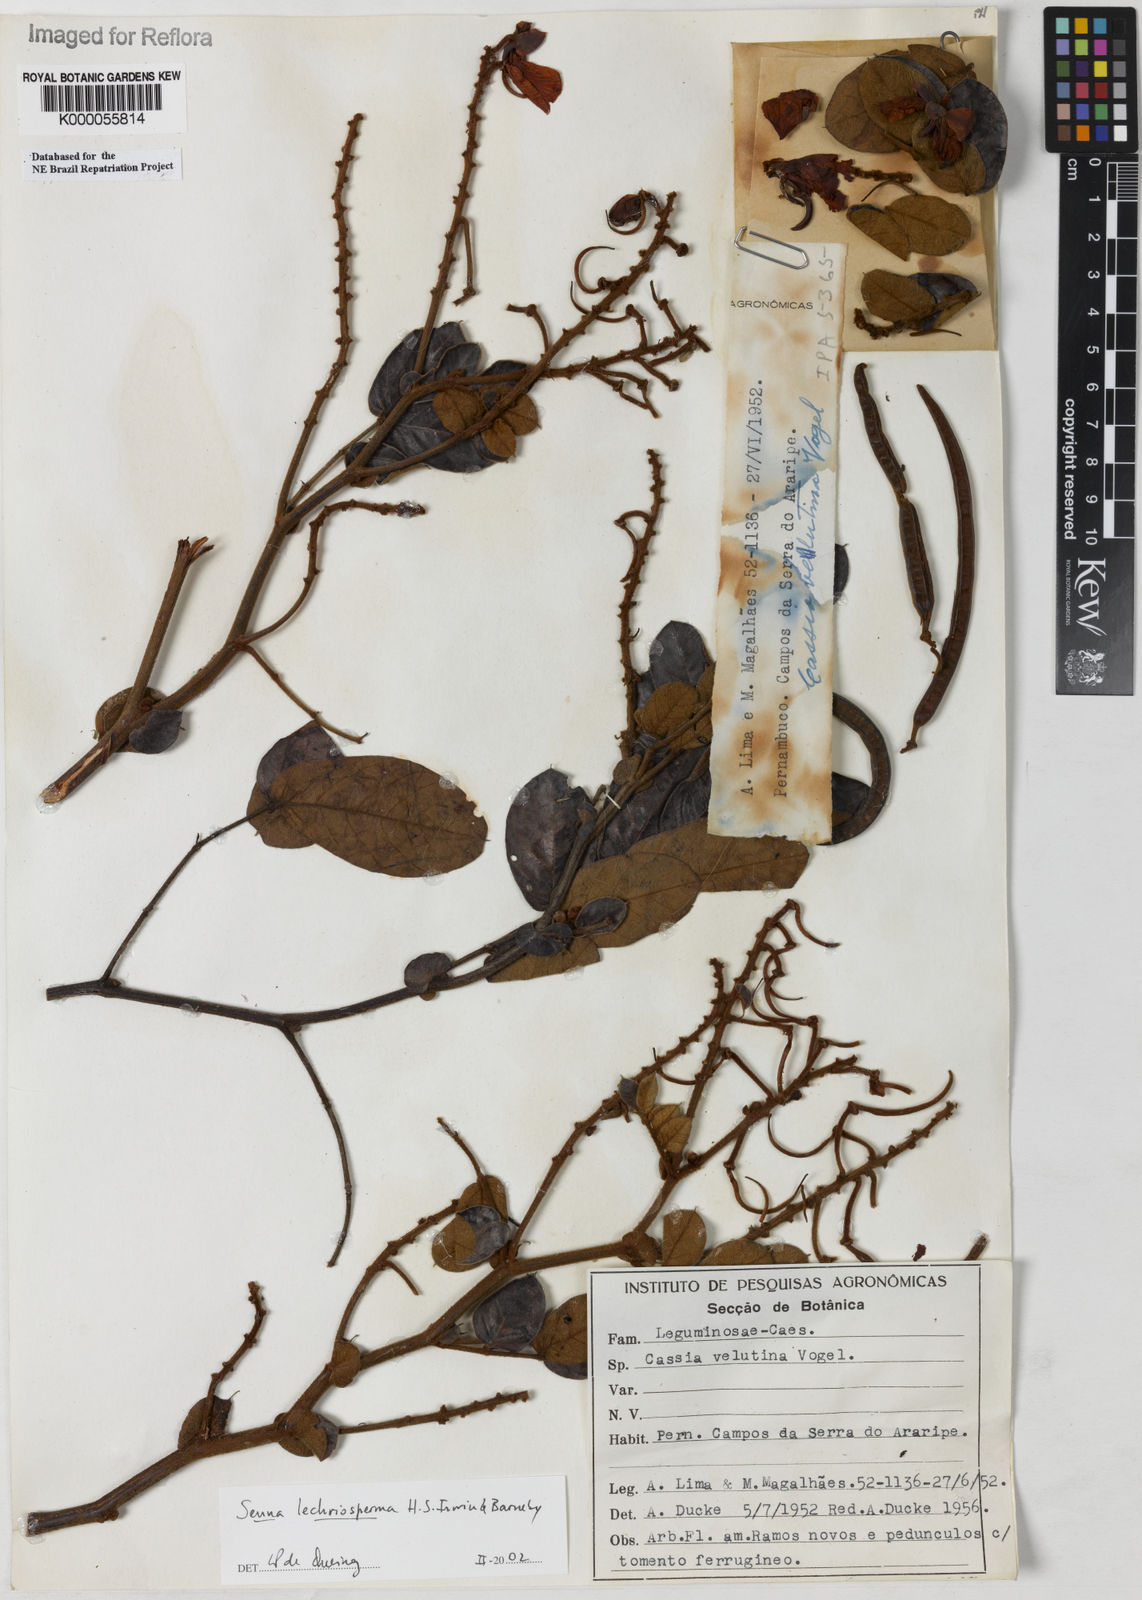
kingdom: Plantae
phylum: Tracheophyta
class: Magnoliopsida
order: Fabales
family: Fabaceae
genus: Senna
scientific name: Senna lechriosperma
